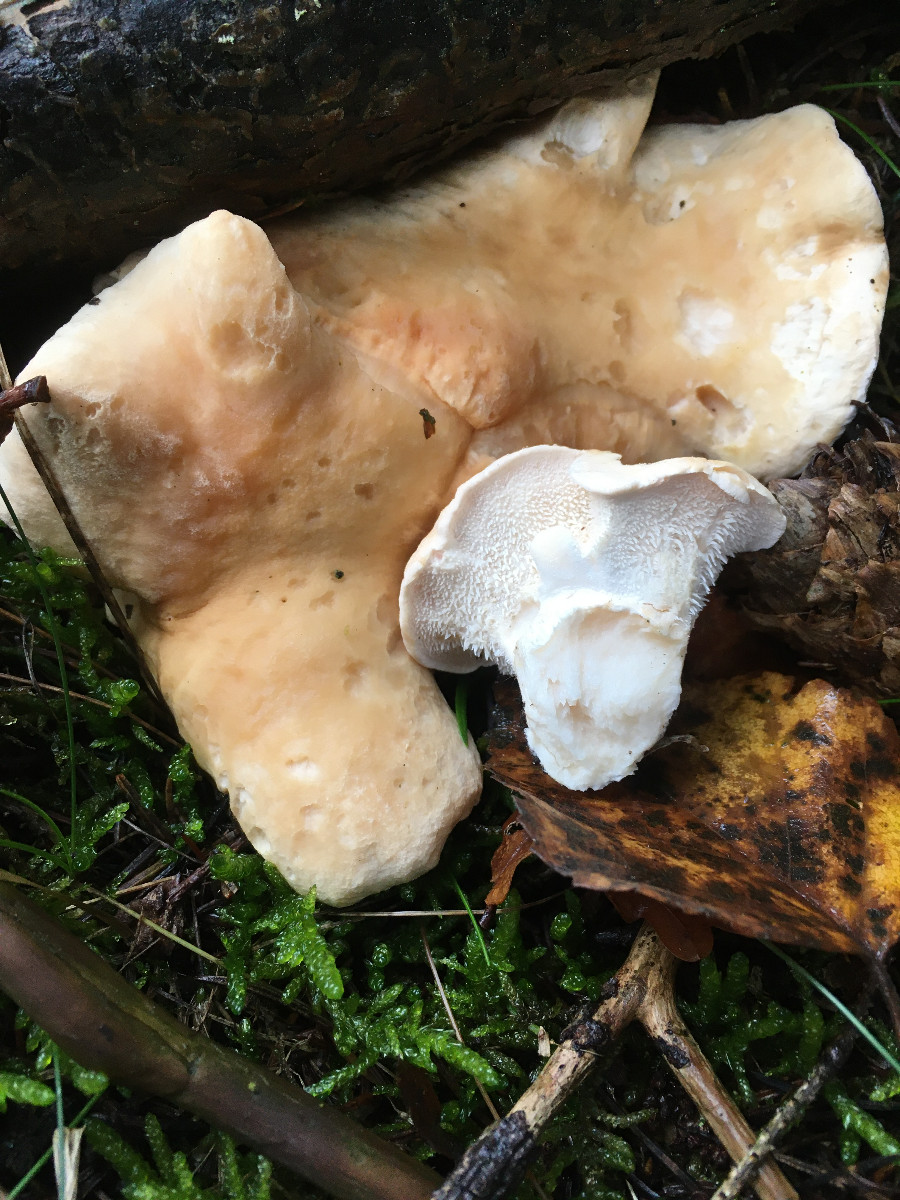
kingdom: Fungi
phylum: Basidiomycota
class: Agaricomycetes
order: Cantharellales
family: Hydnaceae
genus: Hydnum
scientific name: Hydnum repandum
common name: almindelig pigsvamp
